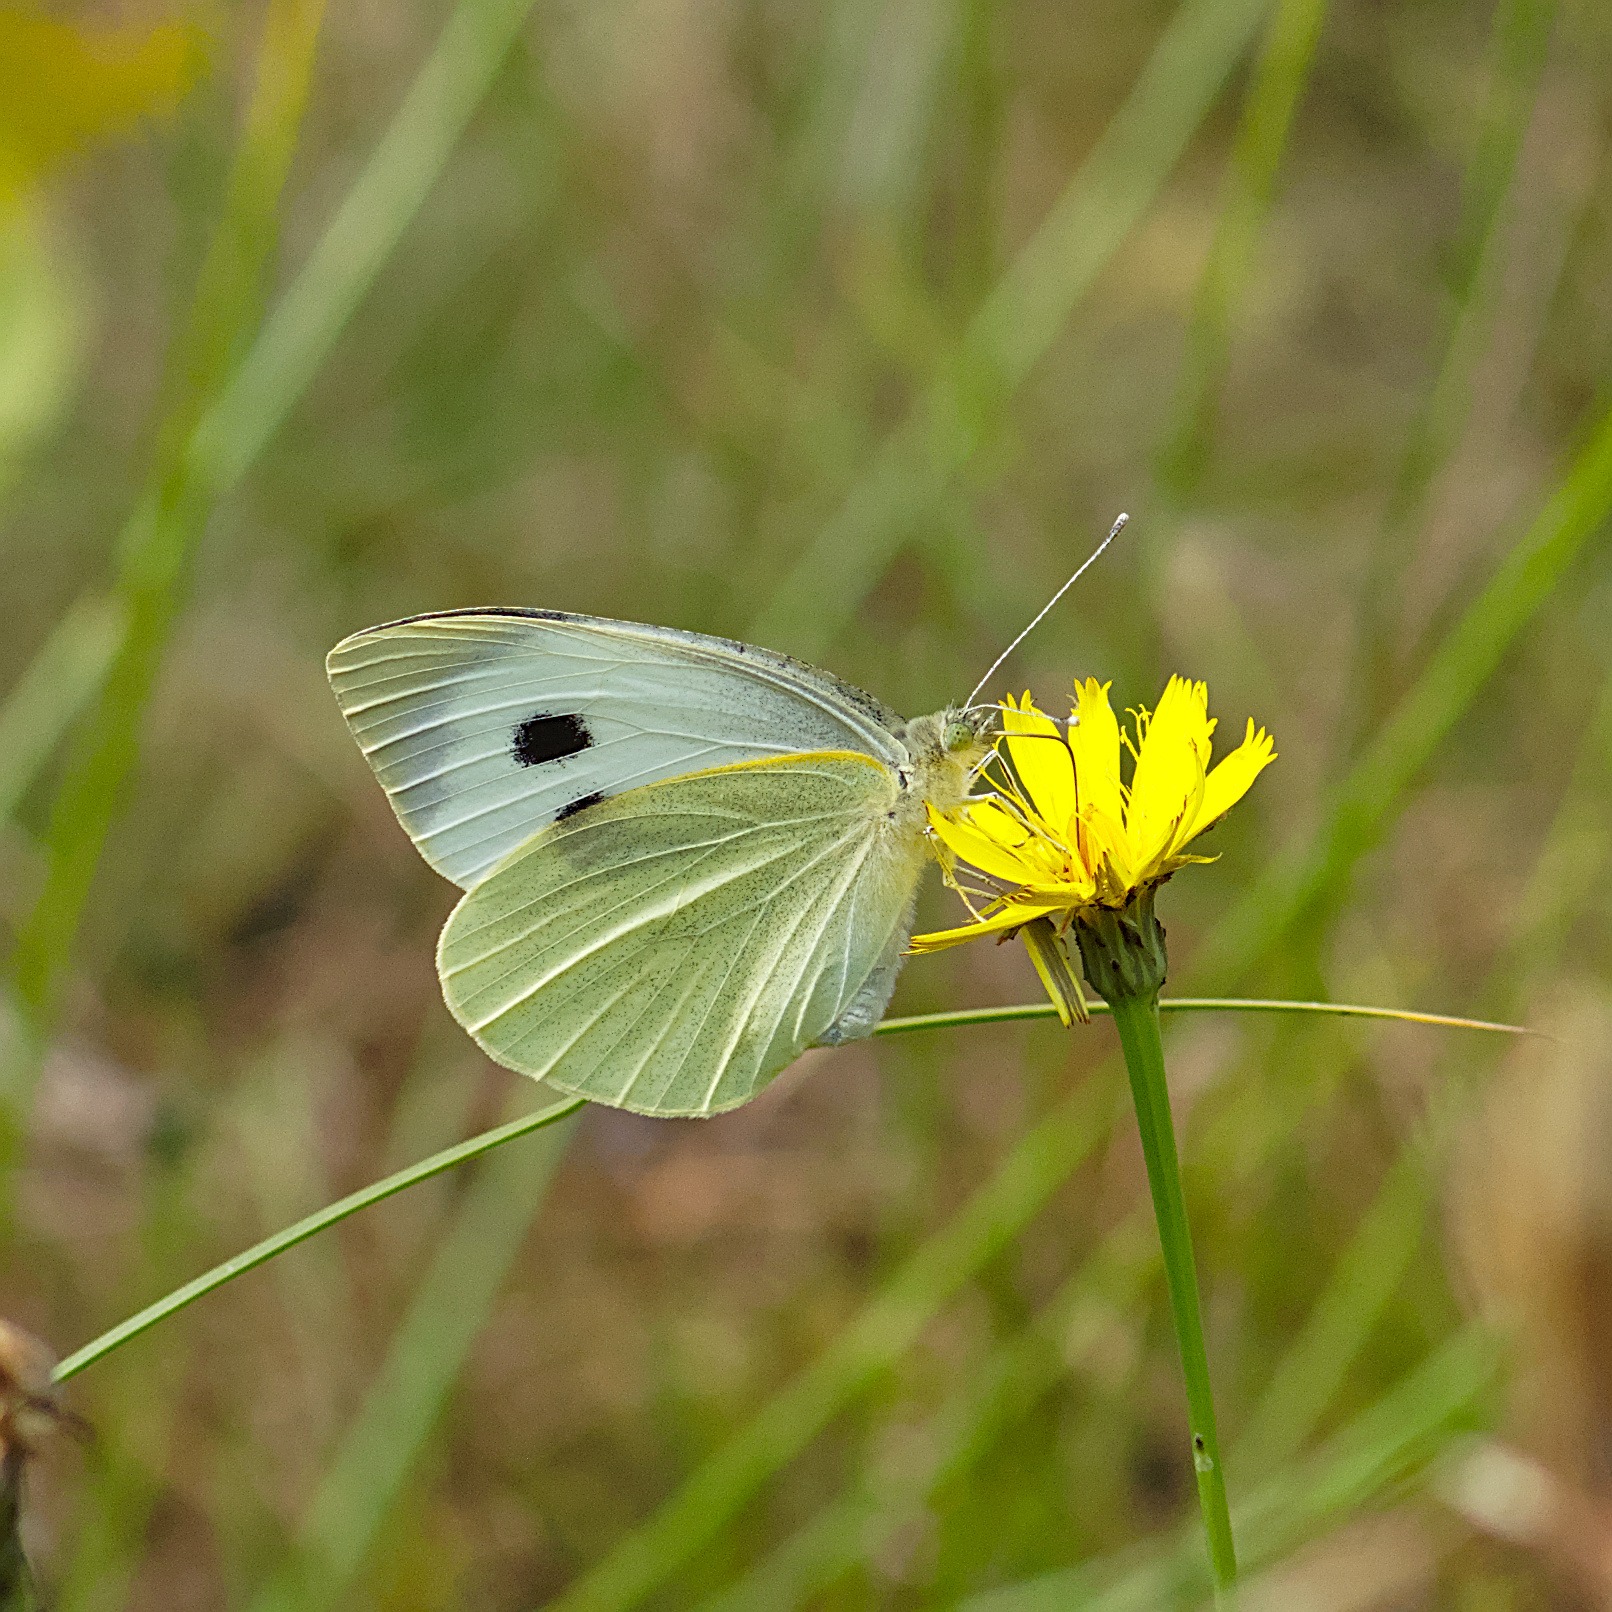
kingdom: Animalia
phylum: Arthropoda
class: Insecta
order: Lepidoptera
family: Pieridae
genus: Pieris
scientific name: Pieris brassicae
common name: Stor kålsommerfugl
